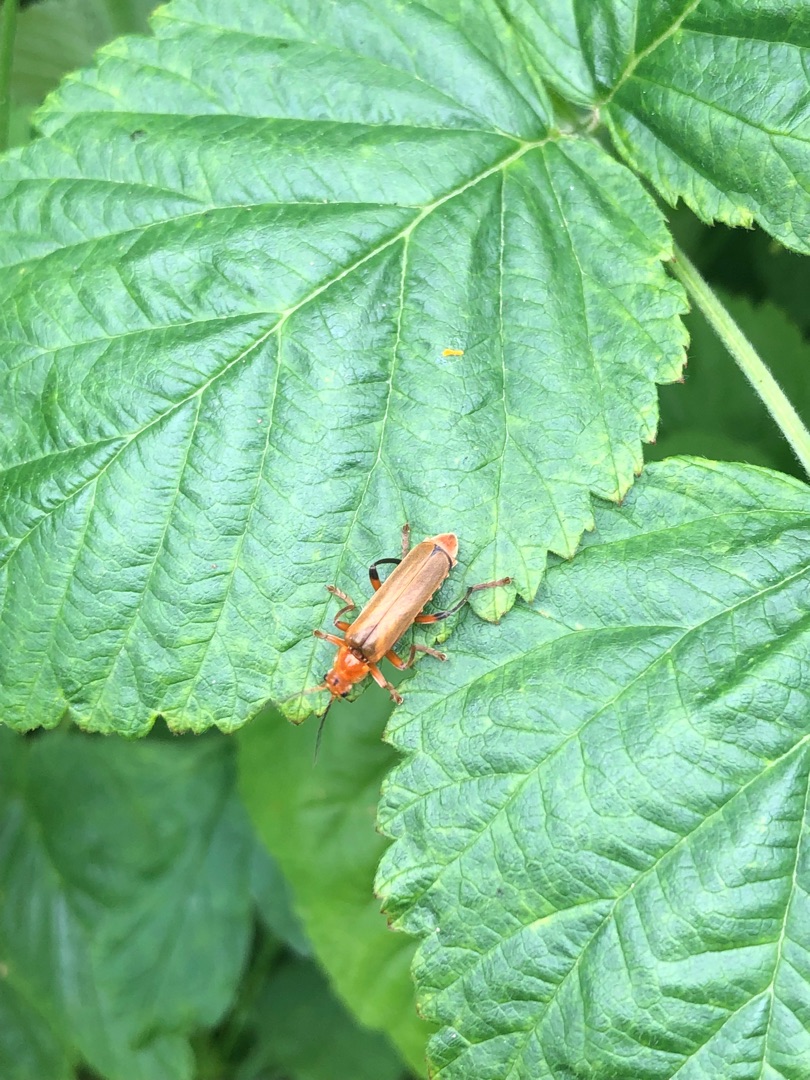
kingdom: Animalia
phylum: Arthropoda
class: Insecta
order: Coleoptera
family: Cantharidae
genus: Cantharis
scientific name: Cantharis livida
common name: Gul blødvinge
